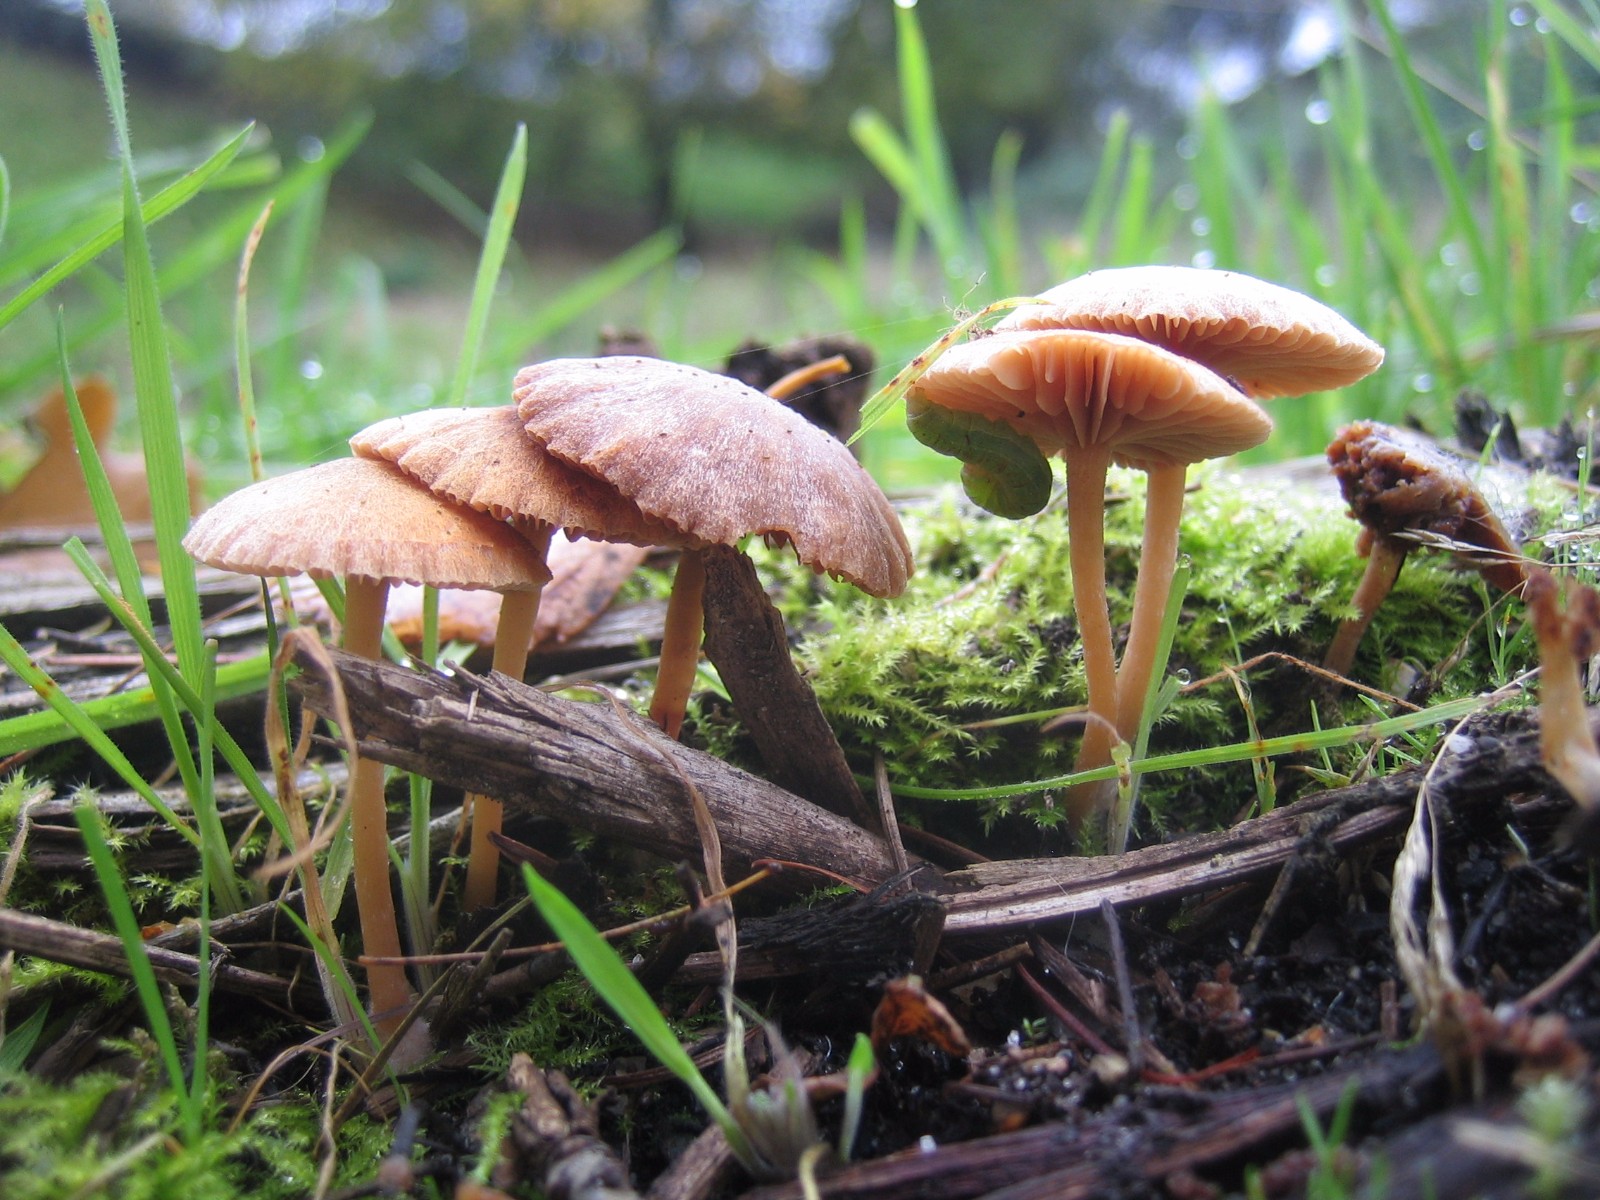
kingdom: Fungi
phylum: Basidiomycota
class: Agaricomycetes
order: Agaricales
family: Tubariaceae
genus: Tubaria
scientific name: Tubaria furfuracea
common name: kliddet fnughat
